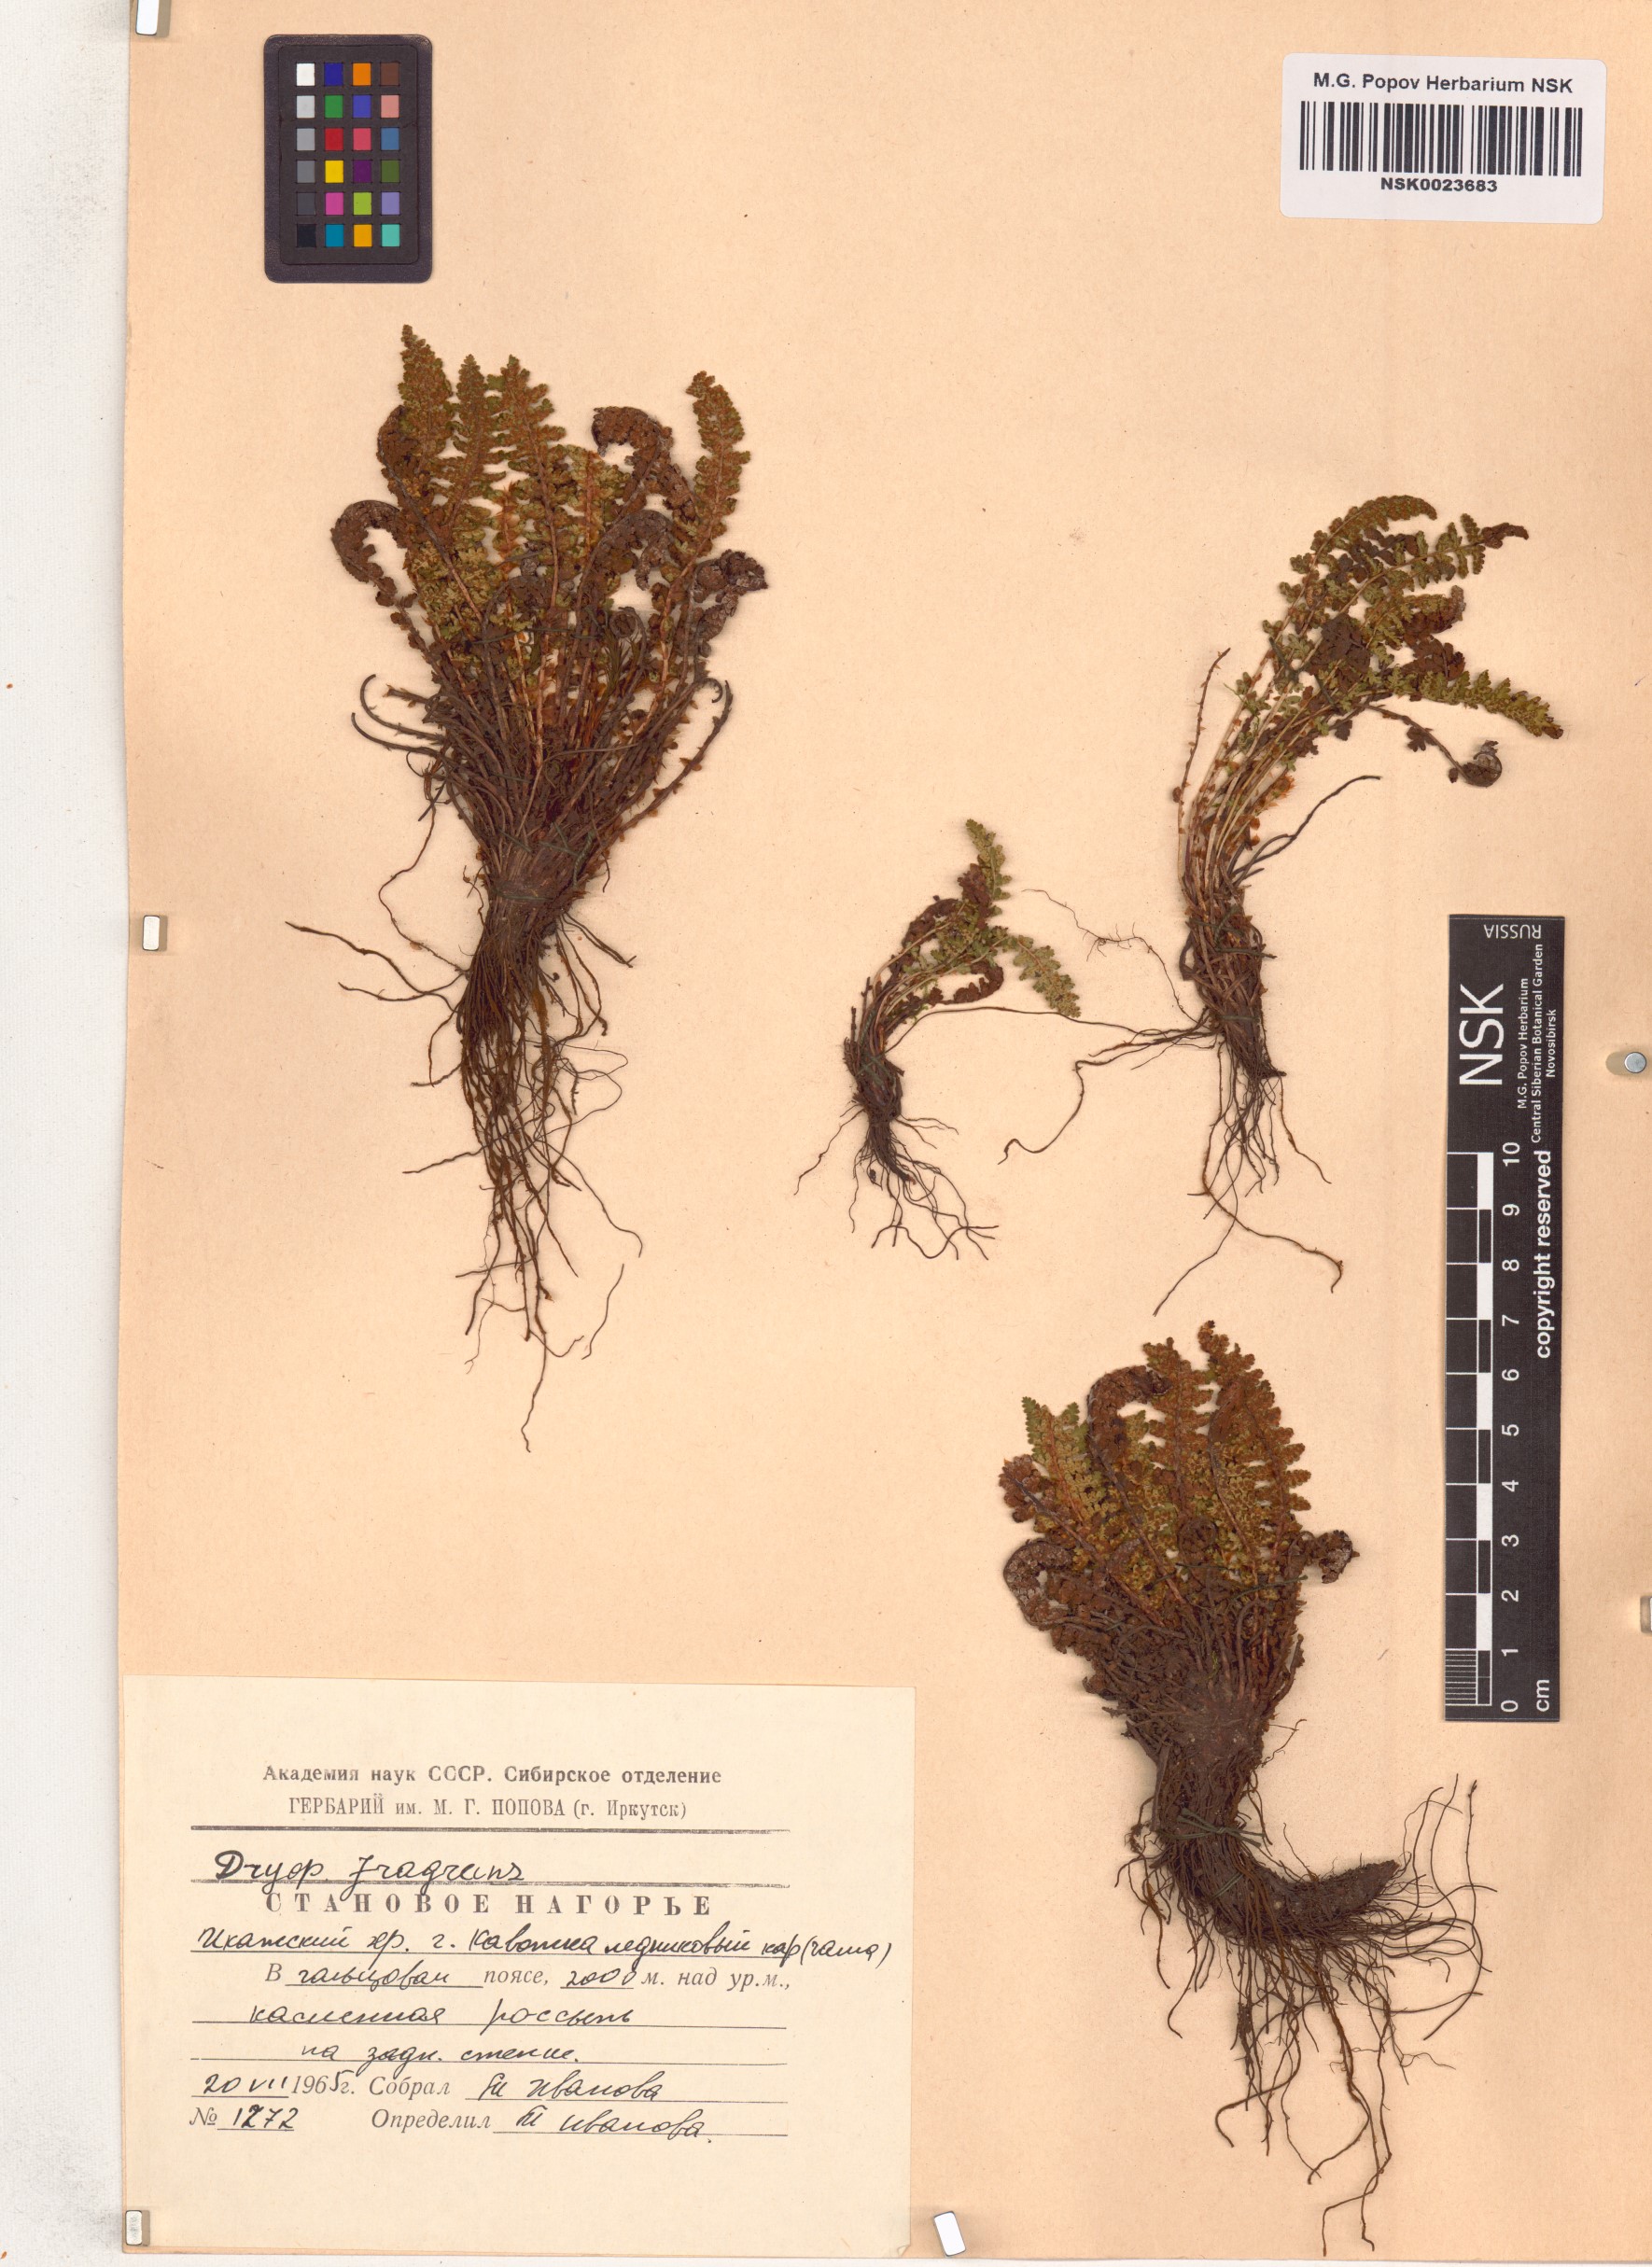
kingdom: Plantae
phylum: Tracheophyta
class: Polypodiopsida
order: Polypodiales
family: Dryopteridaceae
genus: Dryopteris
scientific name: Dryopteris fragrans
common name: Fragrant wood fern
